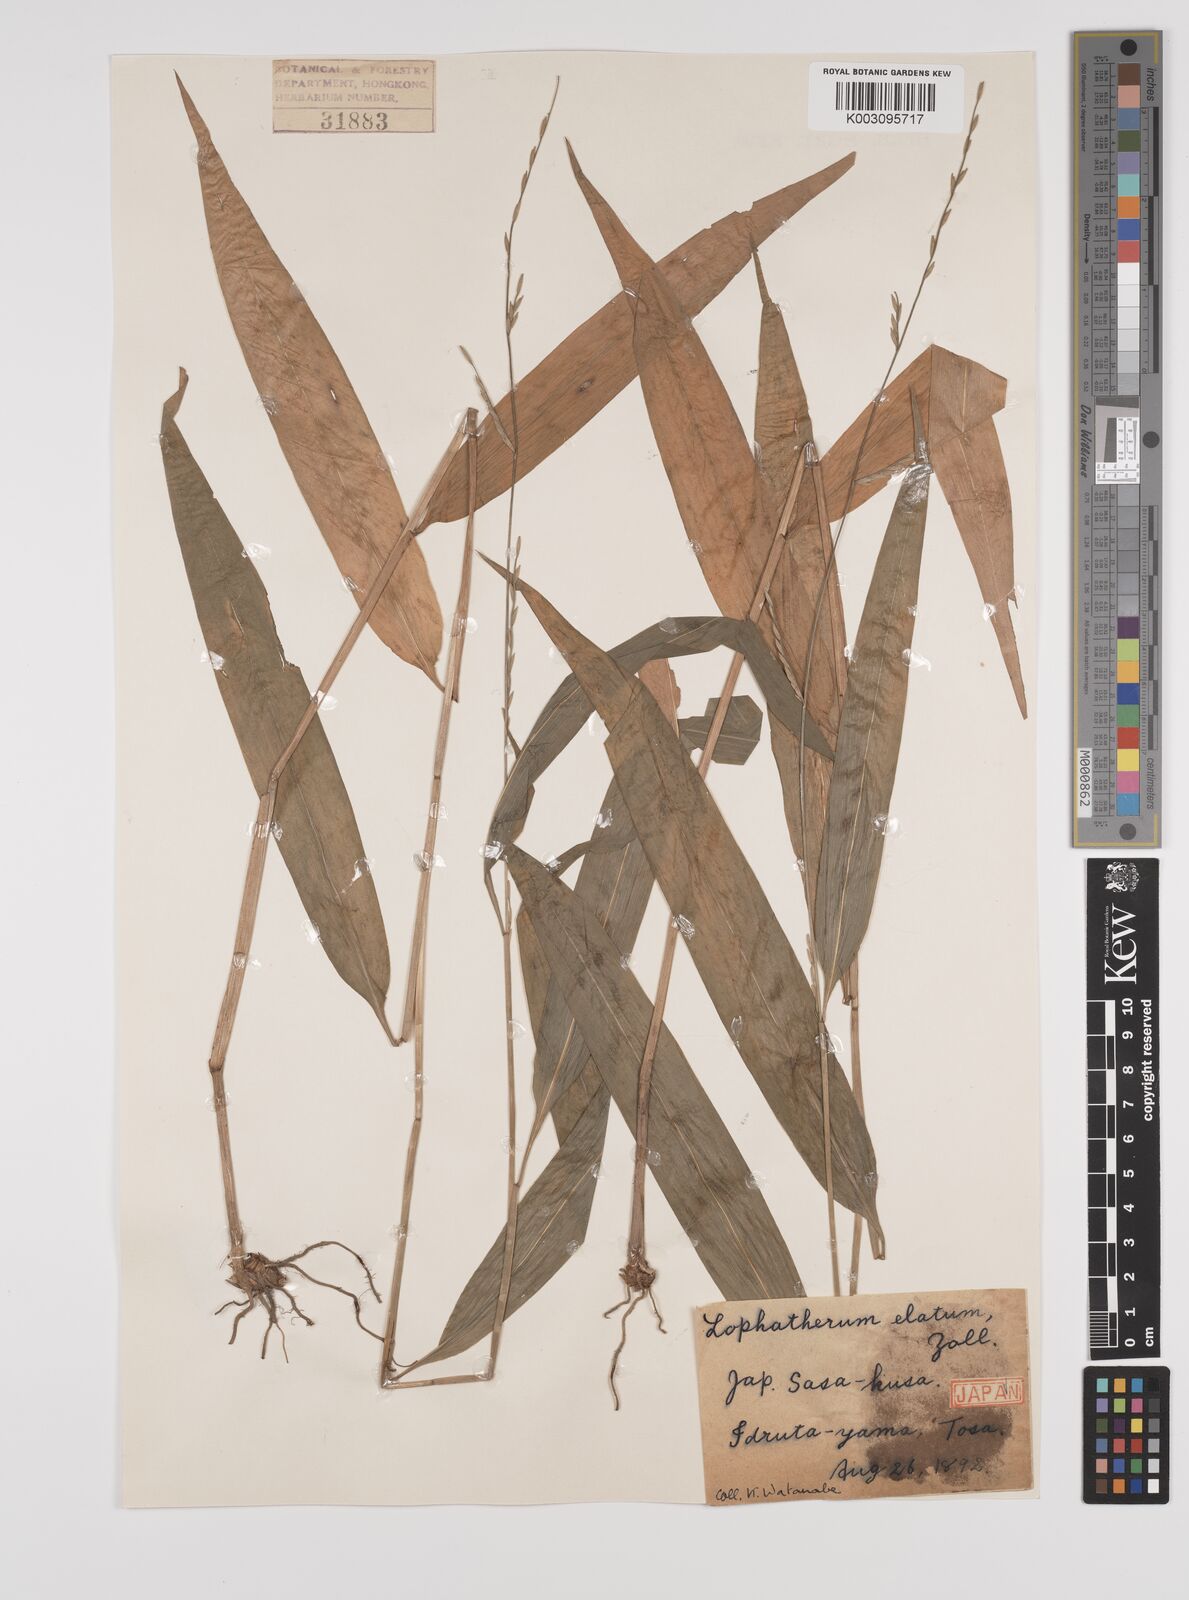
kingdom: Plantae
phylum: Tracheophyta
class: Liliopsida
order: Poales
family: Poaceae
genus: Lophatherum
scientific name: Lophatherum gracile
